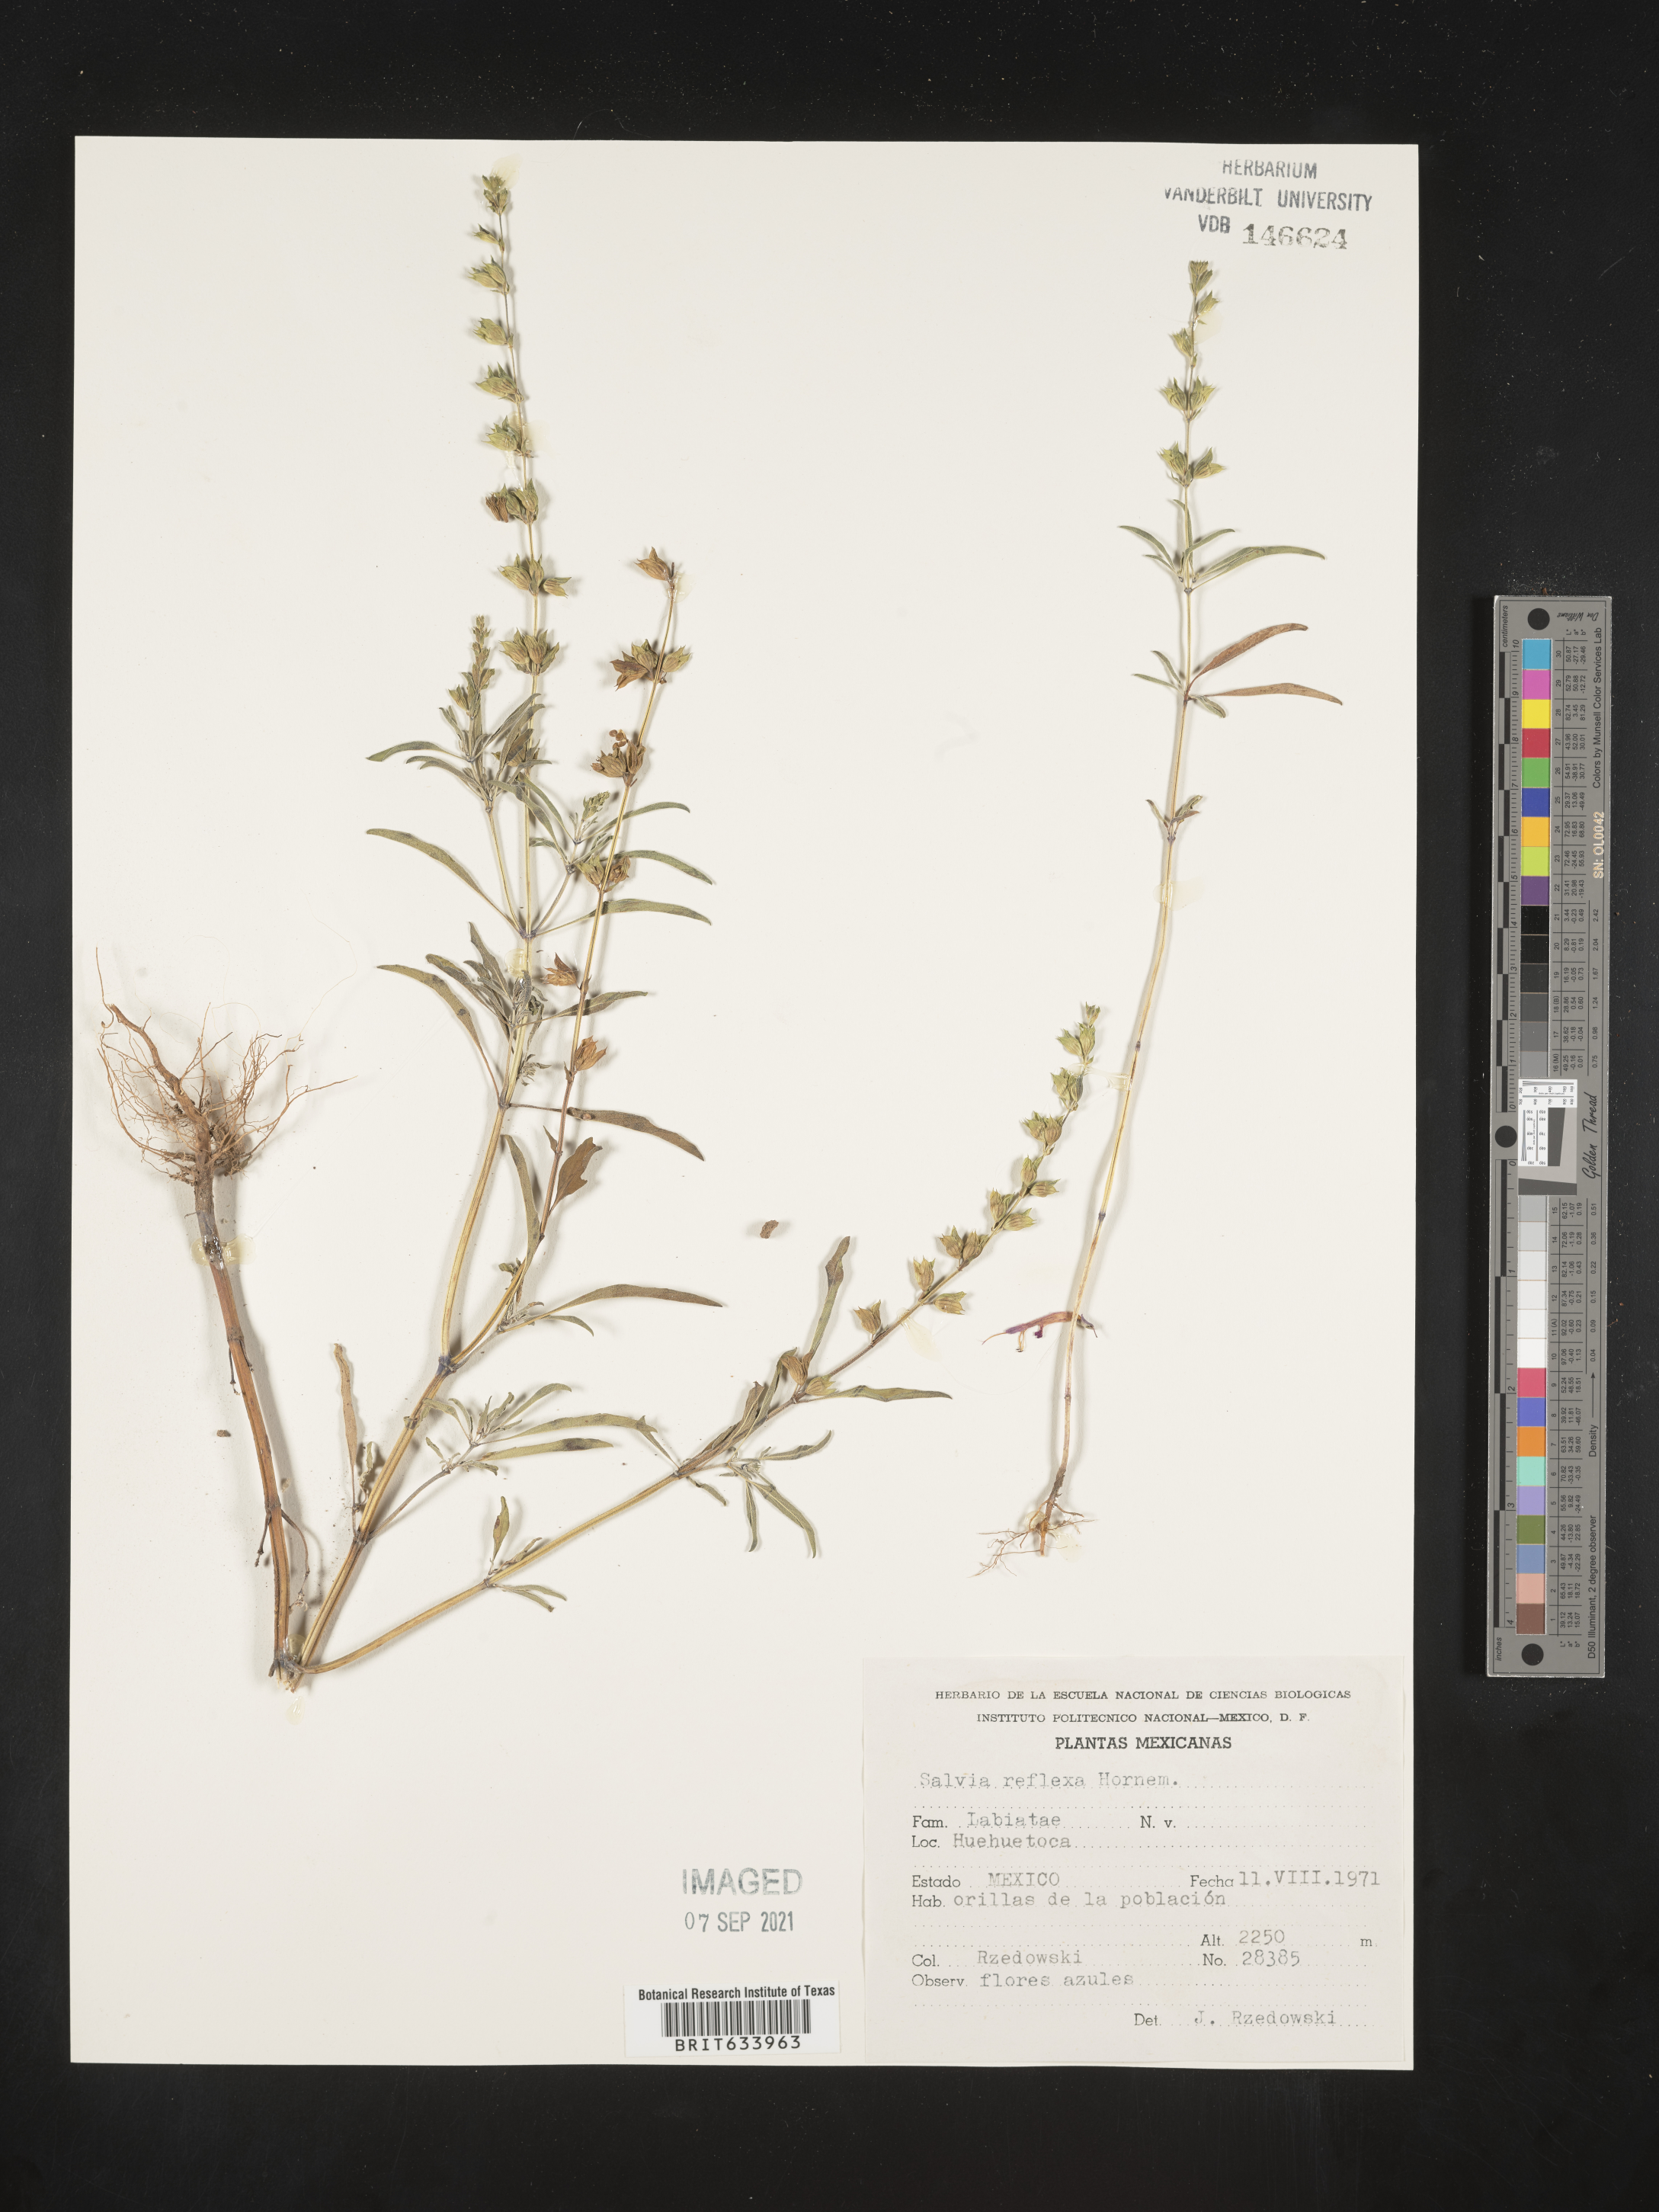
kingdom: Plantae
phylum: Tracheophyta
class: Magnoliopsida
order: Lamiales
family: Lamiaceae
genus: Salvia
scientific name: Salvia
